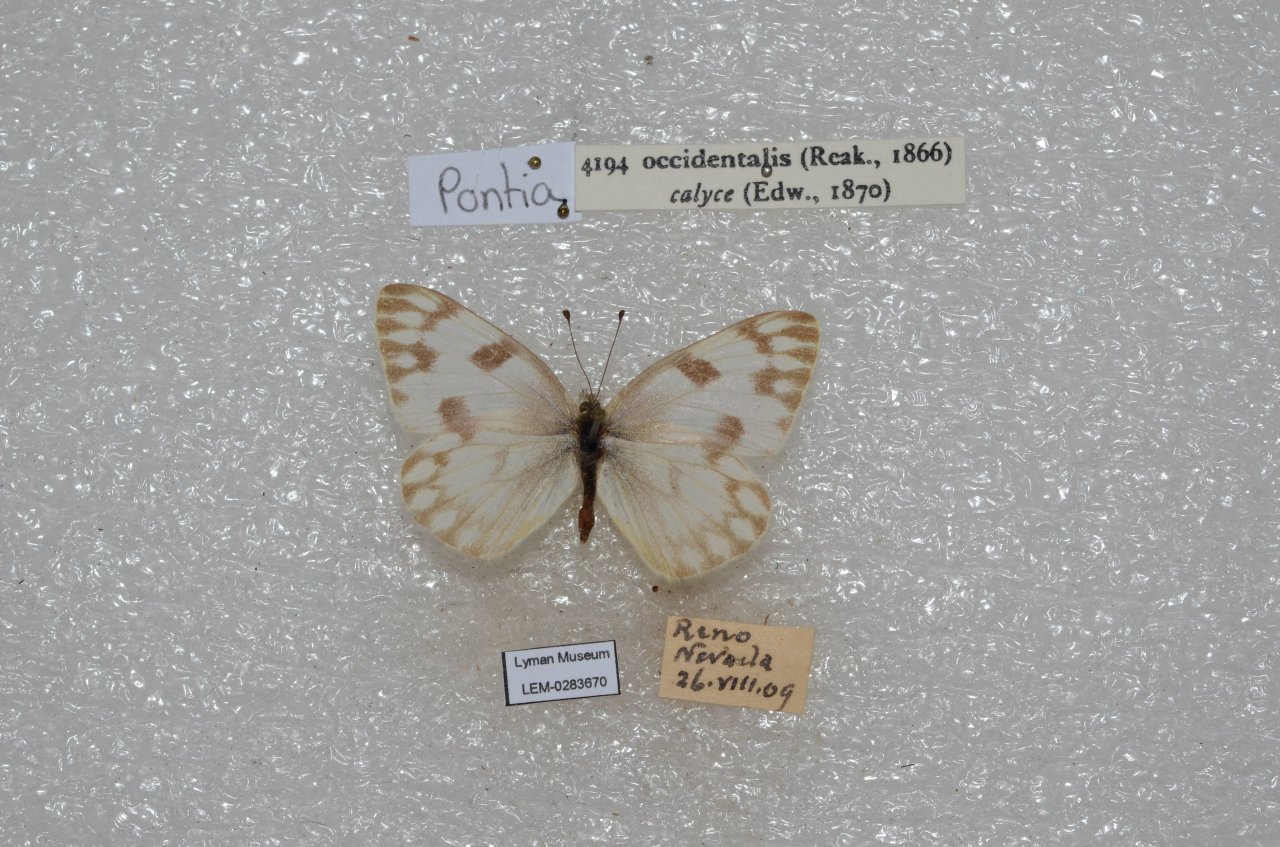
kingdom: Animalia
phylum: Arthropoda
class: Insecta
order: Lepidoptera
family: Pieridae
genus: Pontia
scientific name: Pontia occidentalis
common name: Western White
